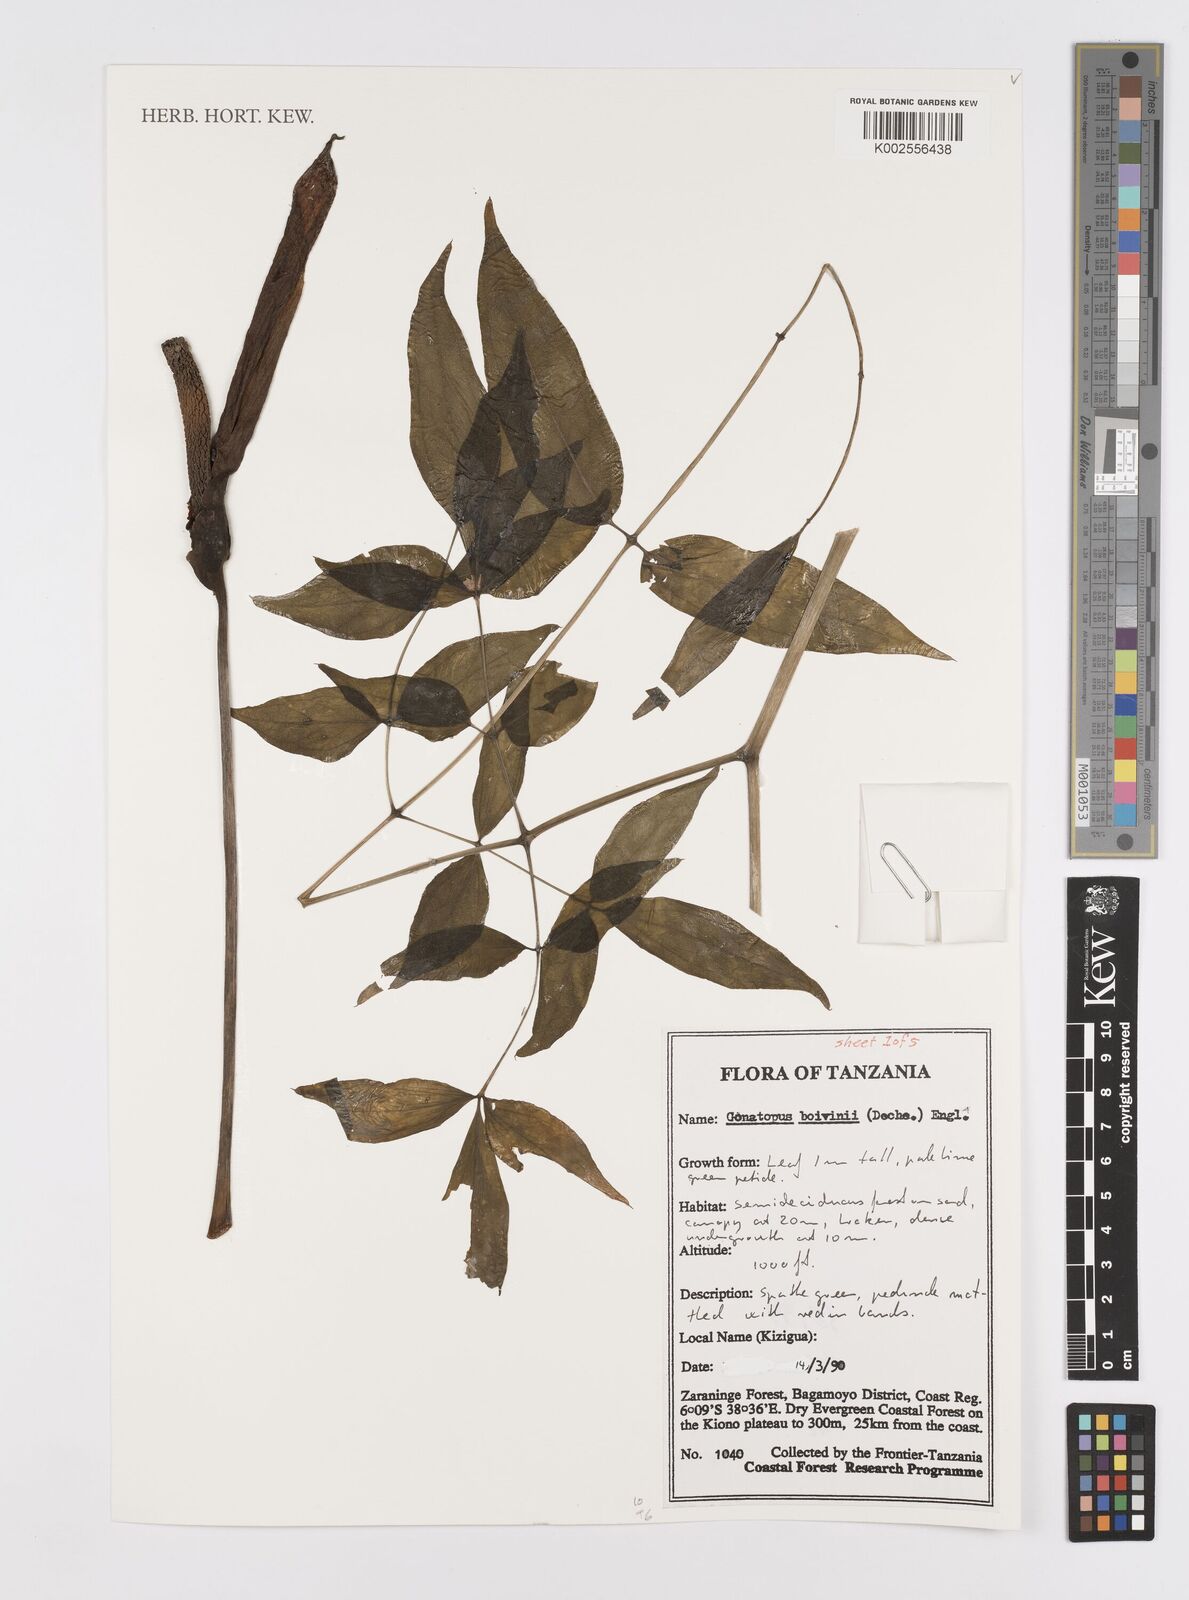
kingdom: Plantae
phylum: Tracheophyta
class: Liliopsida
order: Alismatales
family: Araceae
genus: Gonatopus
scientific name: Gonatopus boivinii
